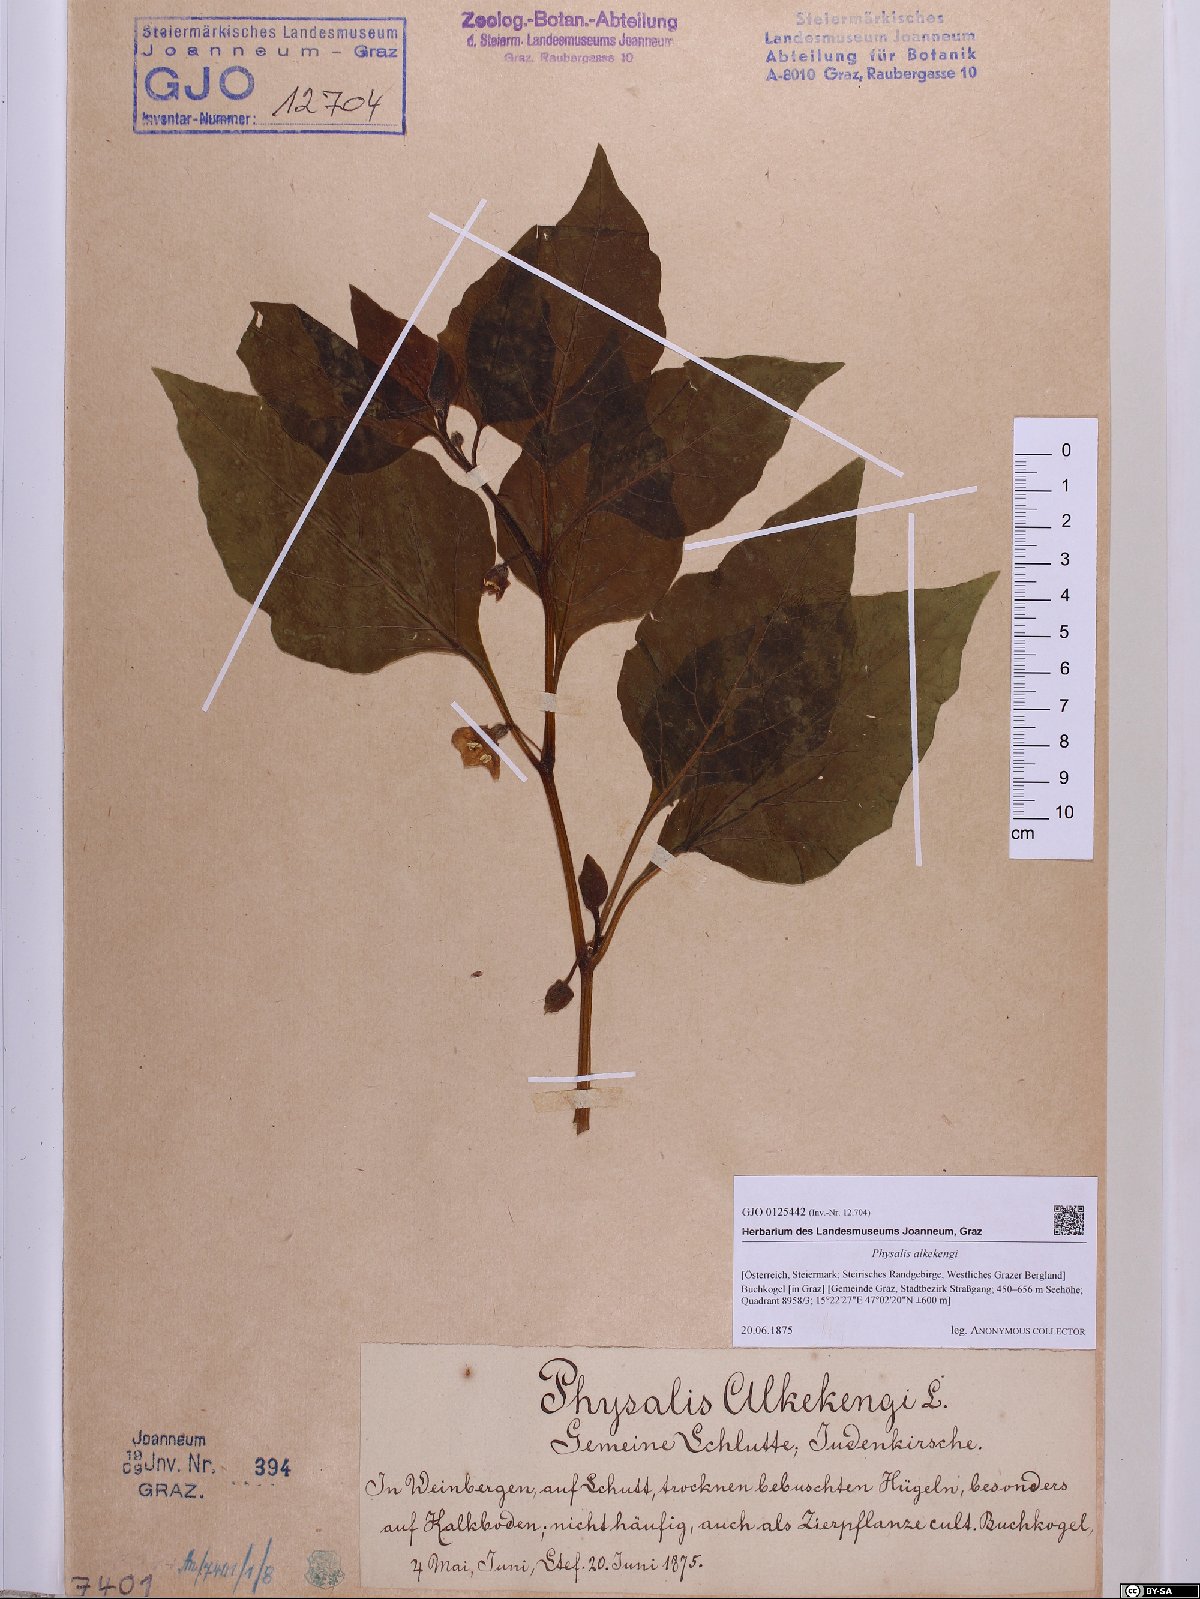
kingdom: Plantae
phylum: Tracheophyta
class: Magnoliopsida
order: Solanales
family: Solanaceae
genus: Alkekengi
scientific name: Alkekengi officinarum
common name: Japanese-lantern
